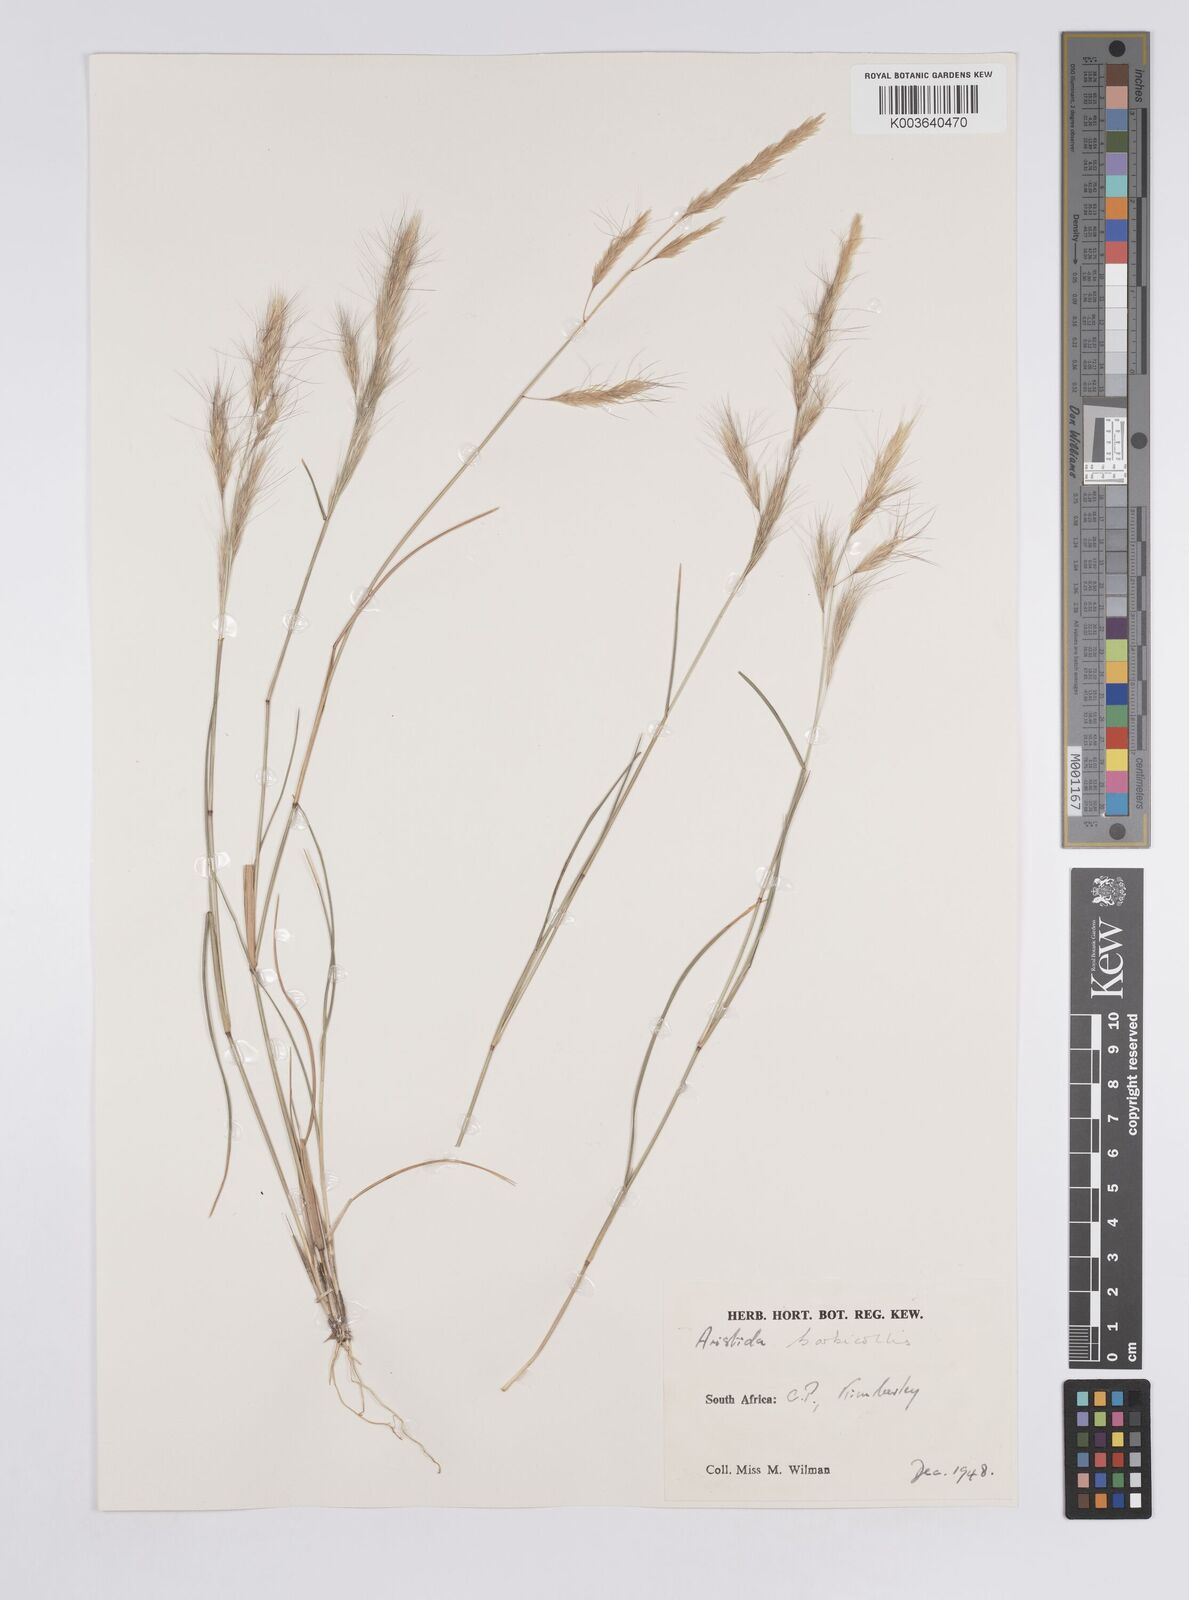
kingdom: Plantae
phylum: Tracheophyta
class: Liliopsida
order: Poales
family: Poaceae
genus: Aristida
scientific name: Aristida barbicollis
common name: Spreading prickle grass
